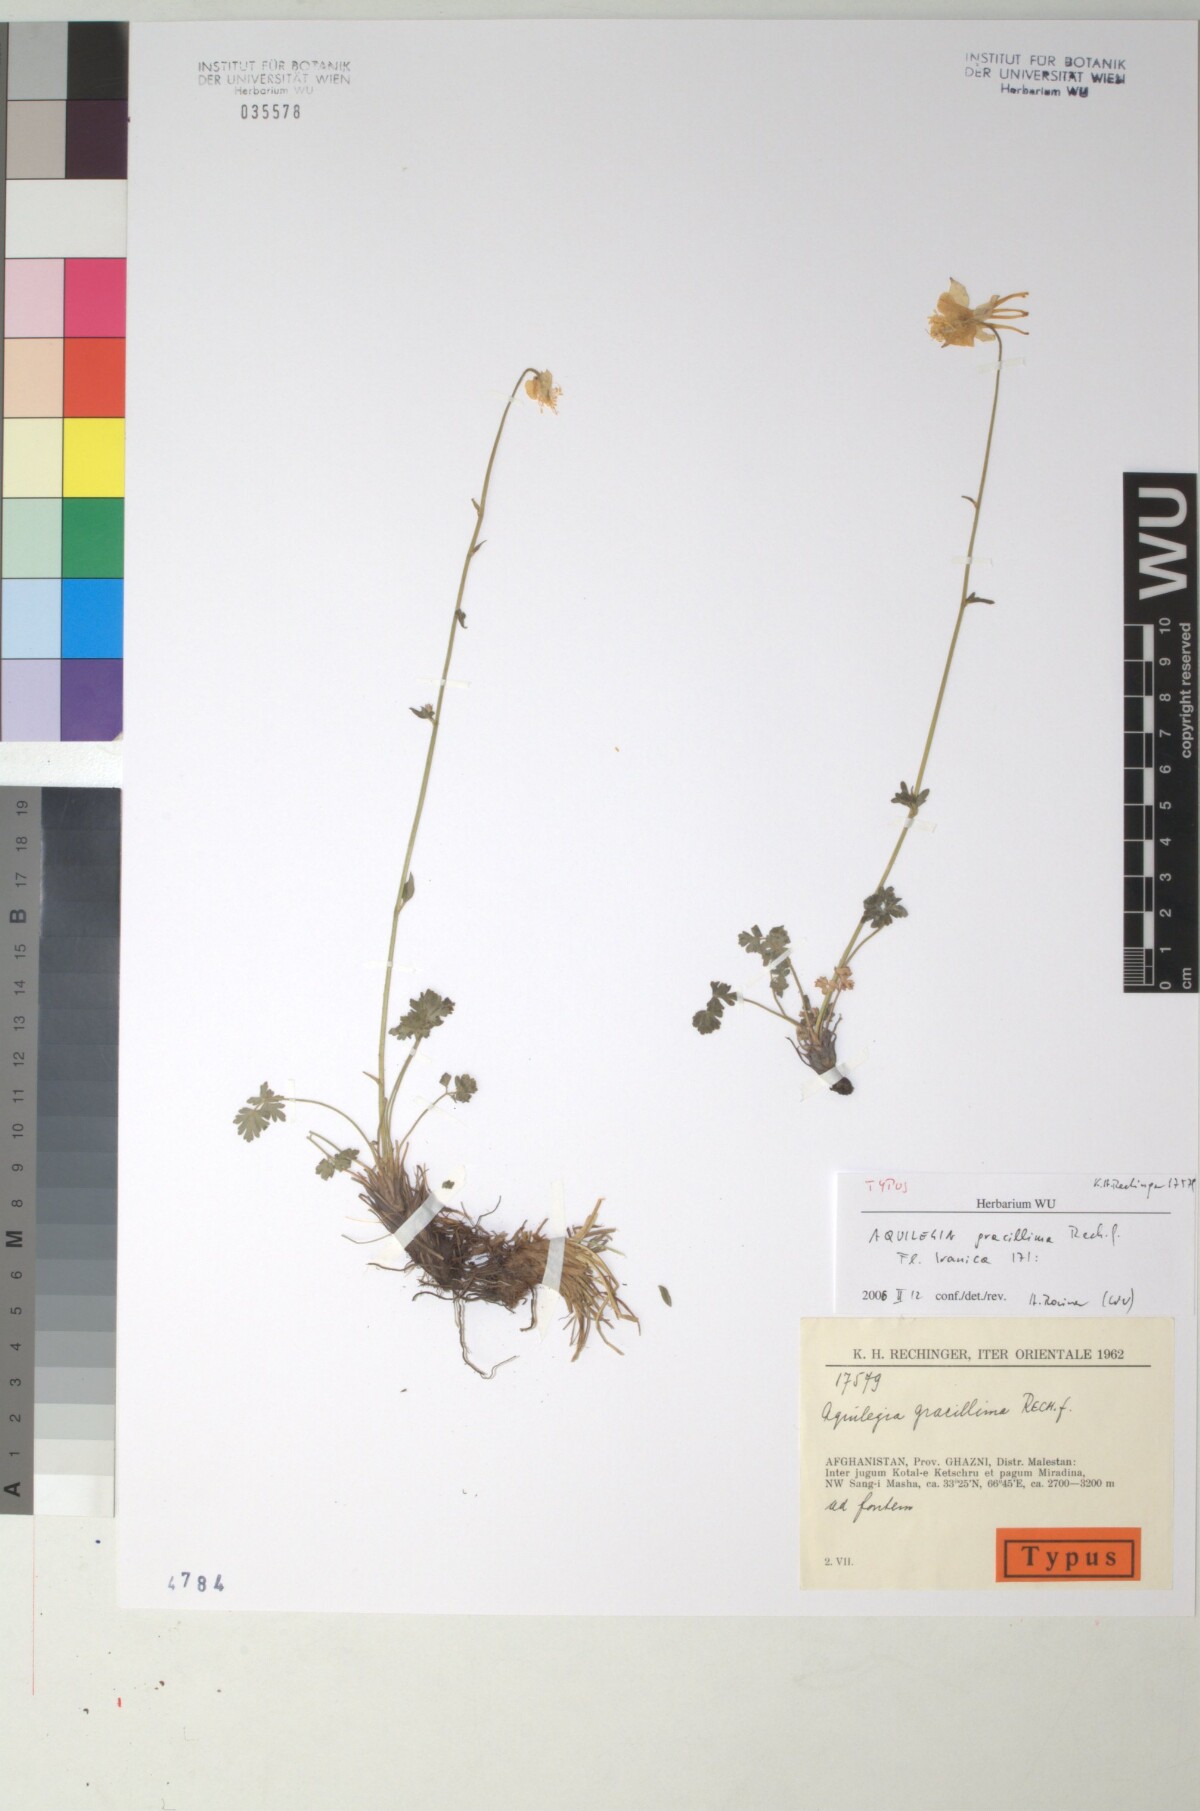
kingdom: Plantae
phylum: Tracheophyta
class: Magnoliopsida
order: Ranunculales
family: Ranunculaceae
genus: Aquilegia
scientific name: Aquilegia gracillima
